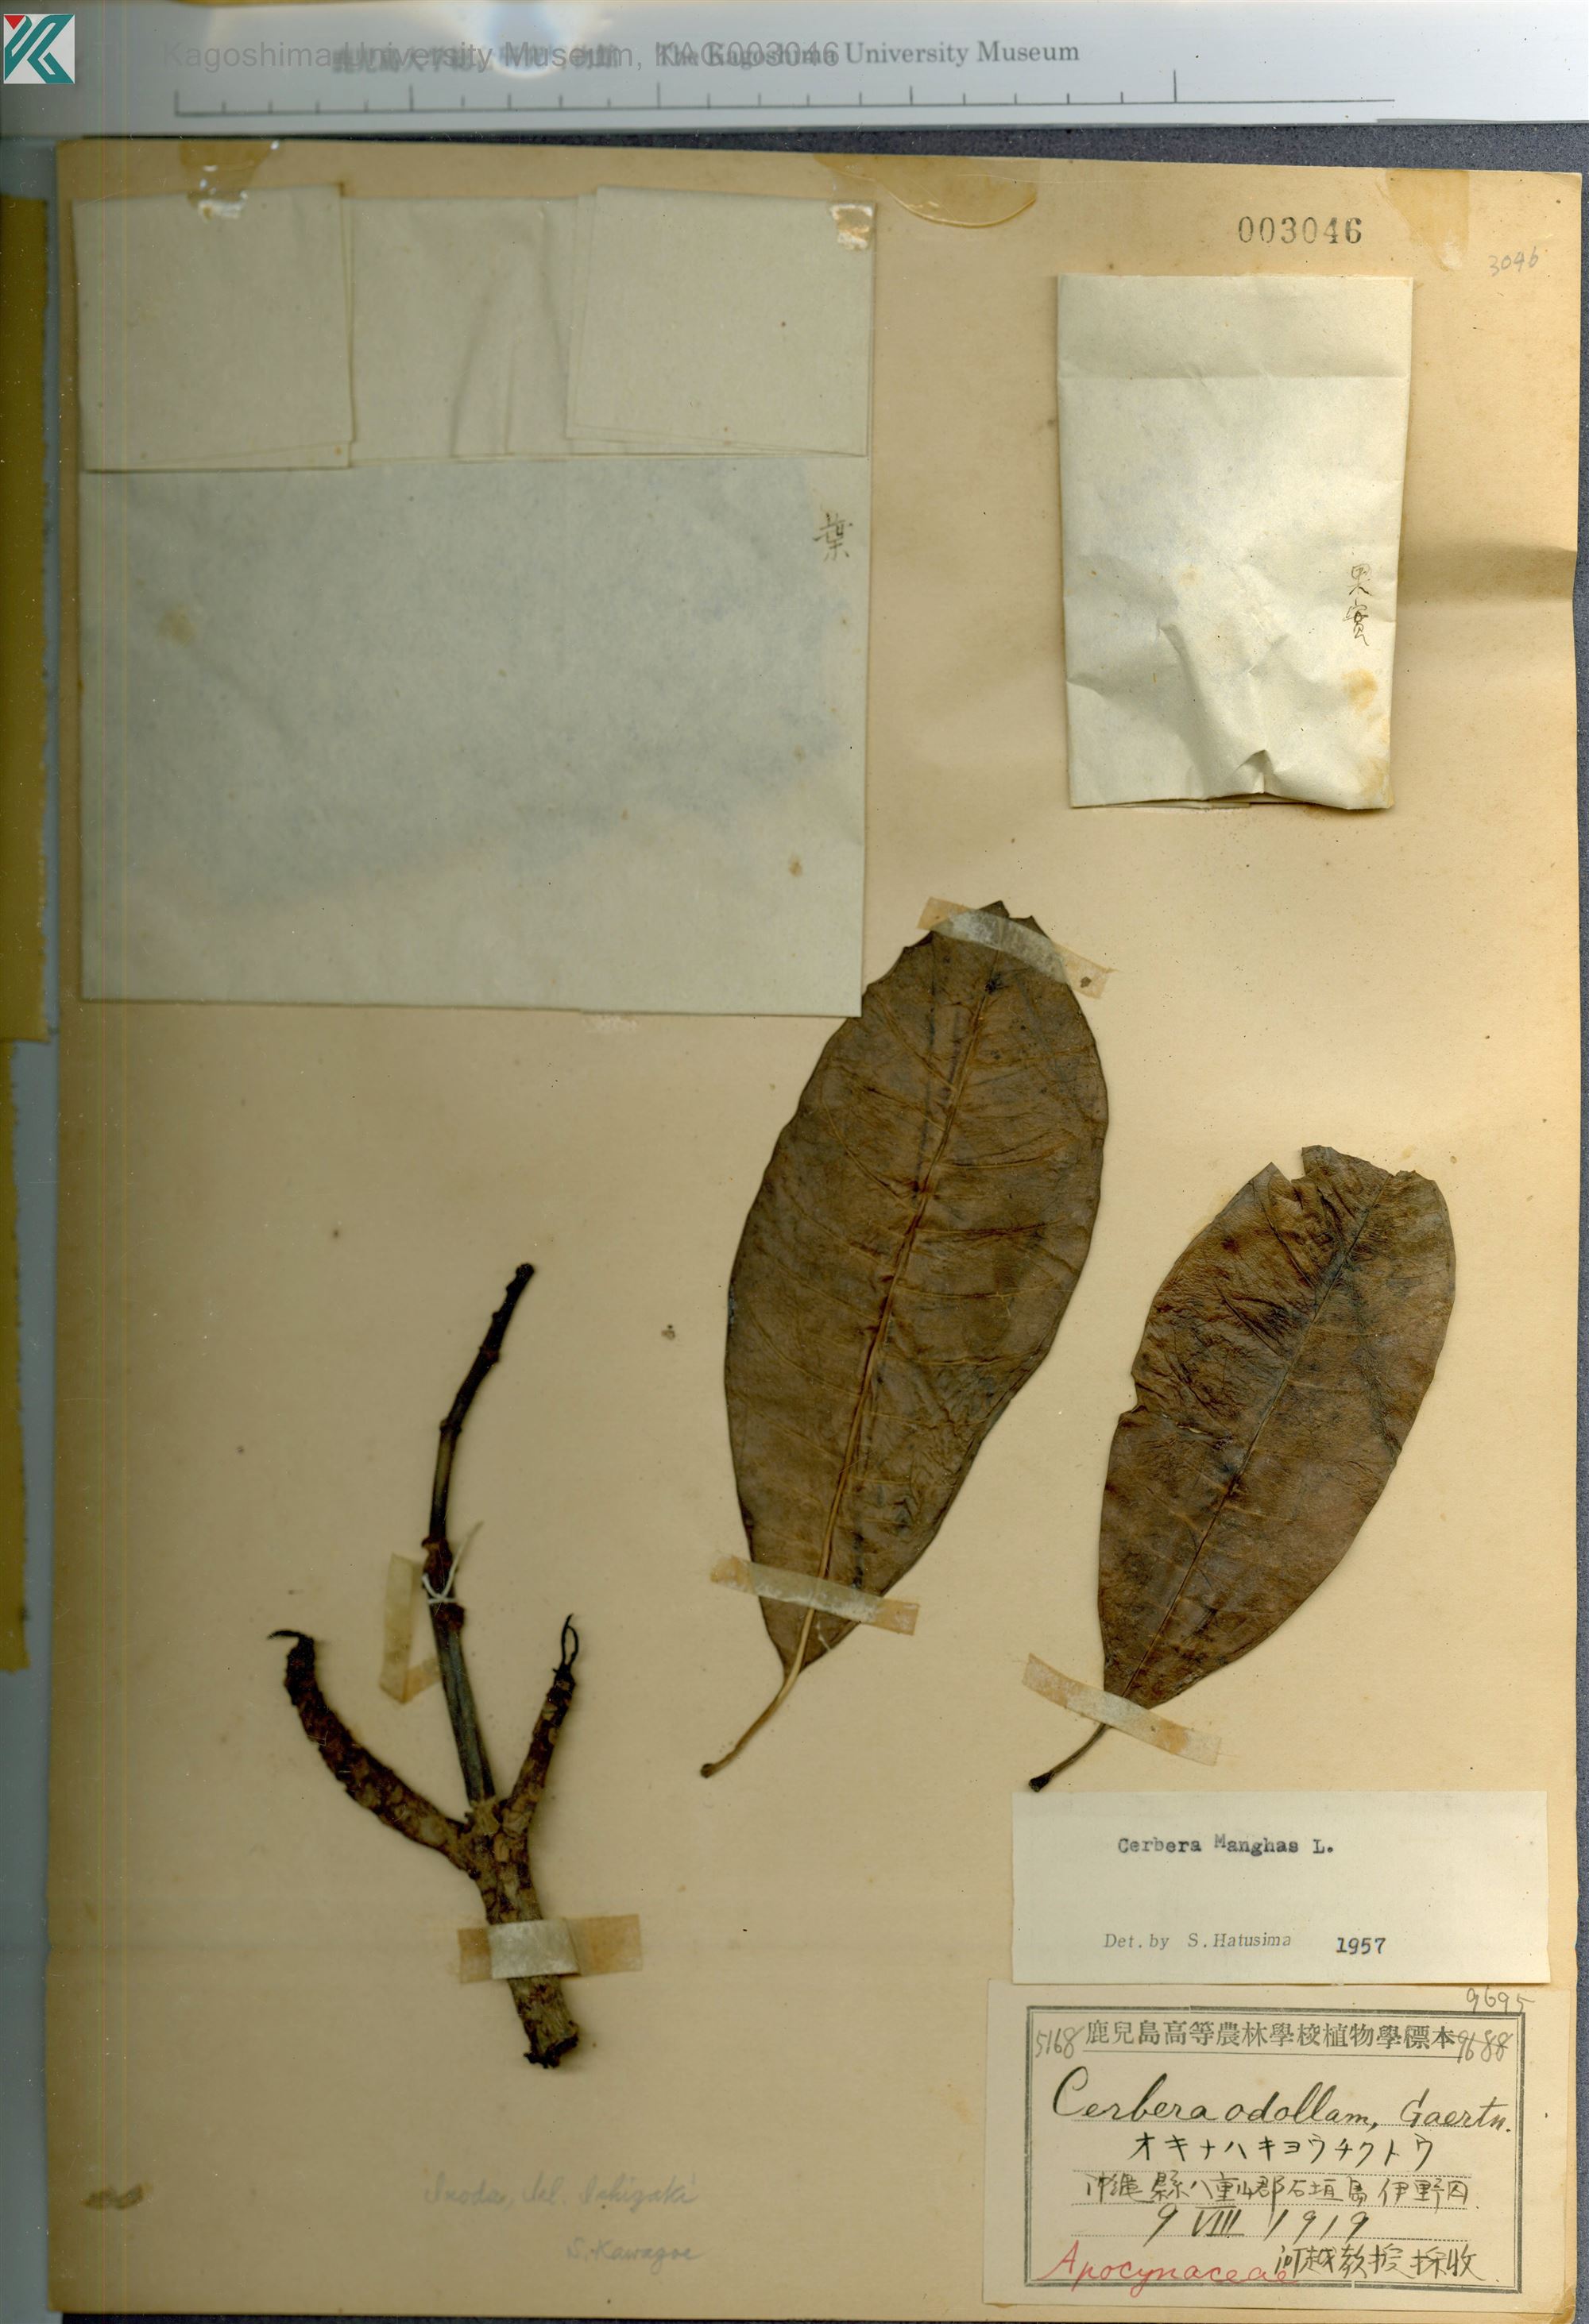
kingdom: Plantae
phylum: Tracheophyta
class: Magnoliopsida
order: Gentianales
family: Apocynaceae
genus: Cerbera
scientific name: Cerbera manghas
